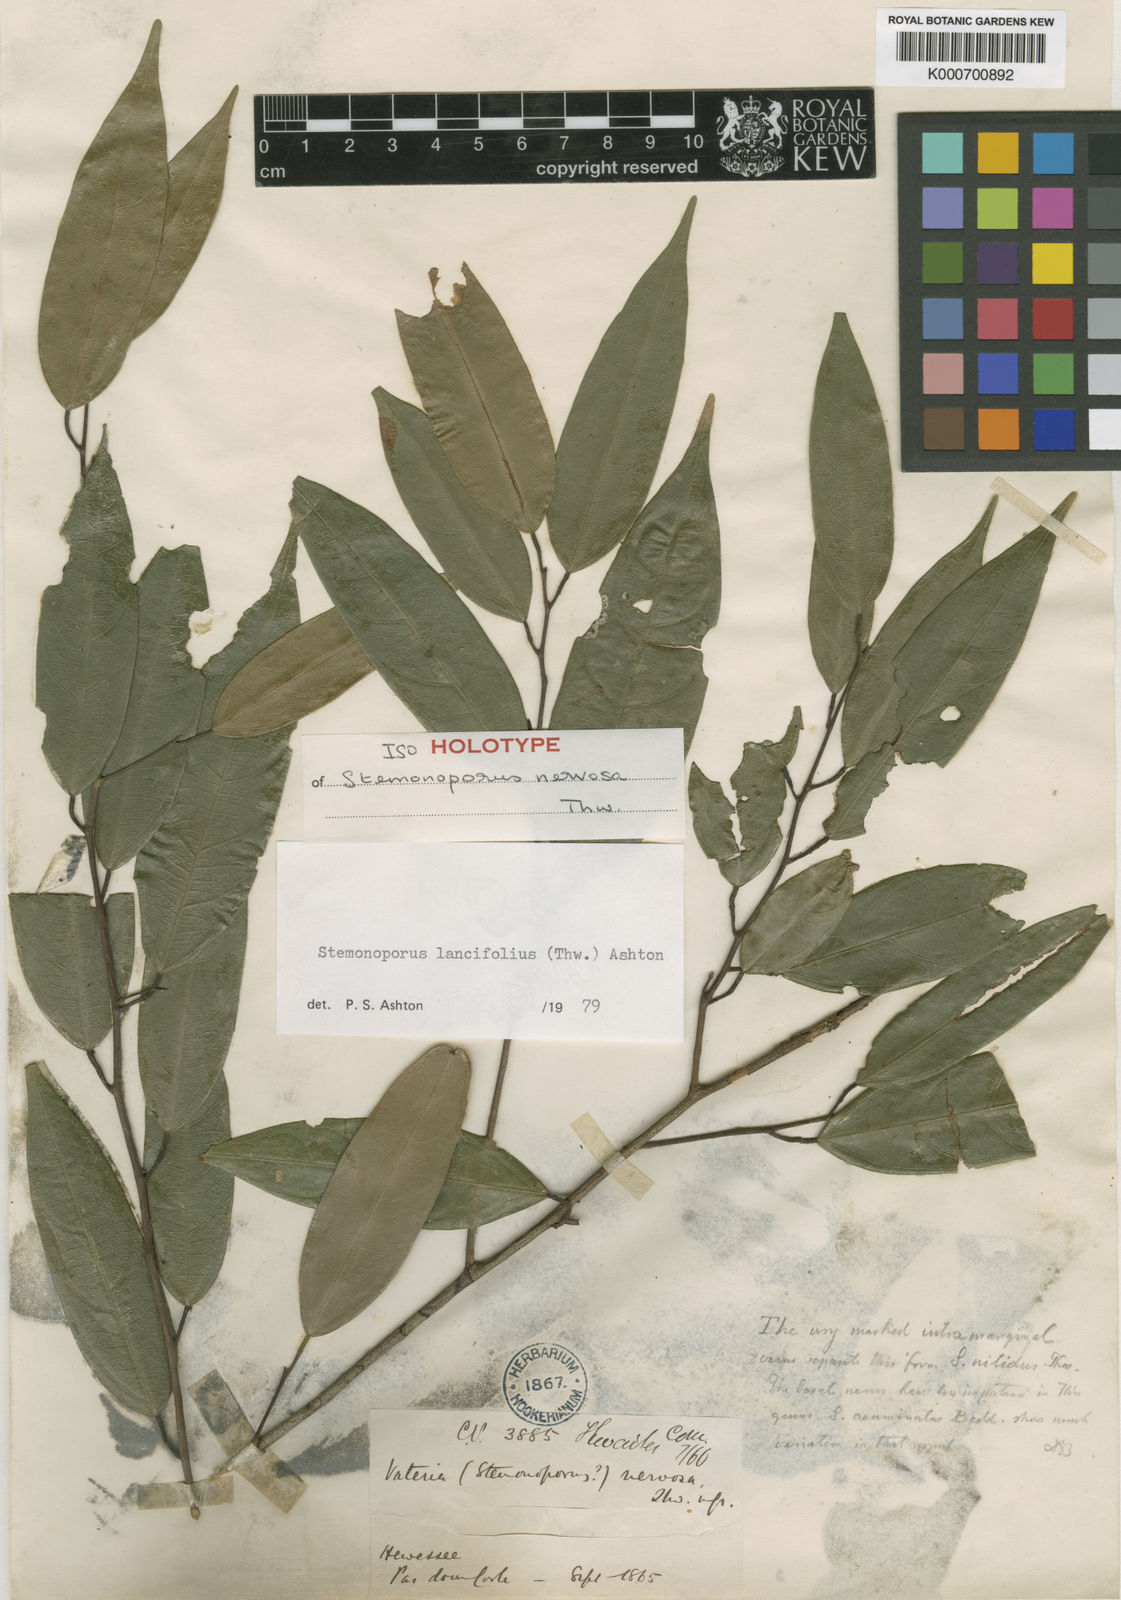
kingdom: Plantae
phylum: Tracheophyta
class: Magnoliopsida
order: Malvales
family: Dipterocarpaceae
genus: Stemonoporus
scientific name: Stemonoporus lancifolius
